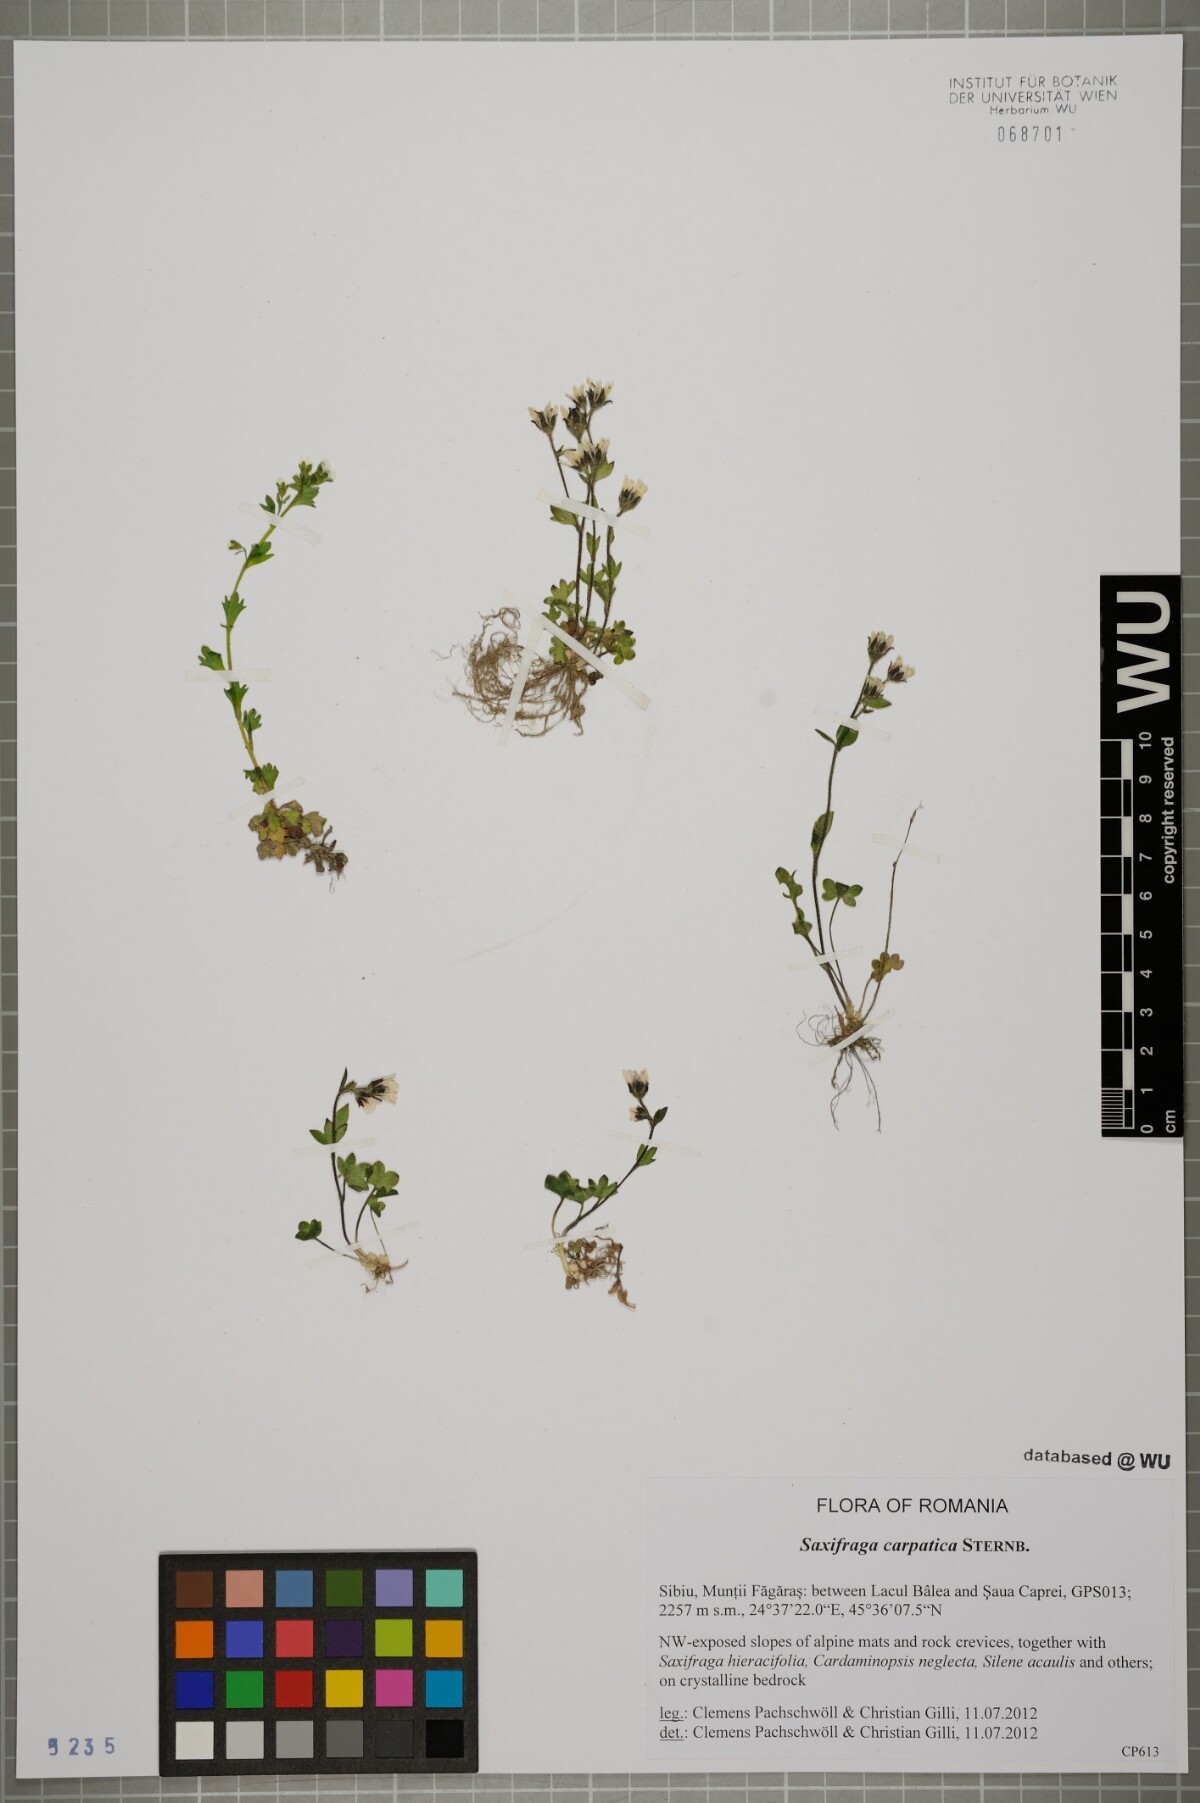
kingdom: Plantae
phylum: Tracheophyta
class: Magnoliopsida
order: Saxifragales
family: Saxifragaceae
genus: Saxifraga
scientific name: Saxifraga carpatica
